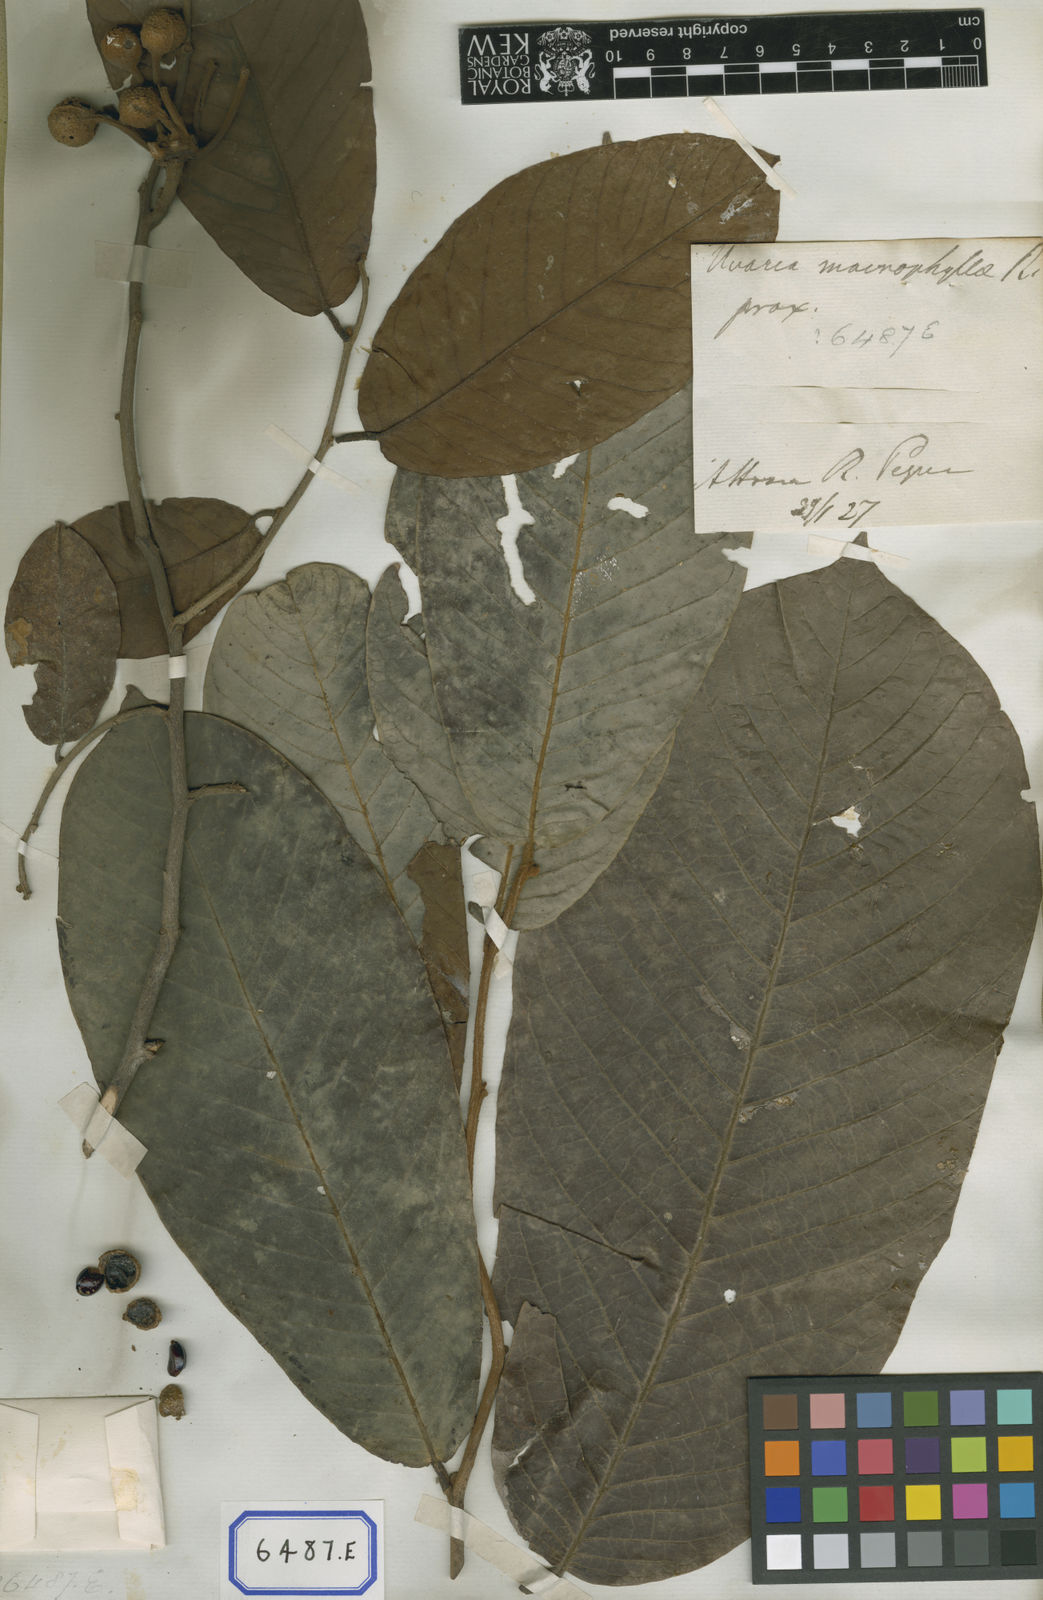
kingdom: Plantae
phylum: Tracheophyta
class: Magnoliopsida
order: Magnoliales
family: Annonaceae
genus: Uvaria
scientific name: Uvaria littoralis
